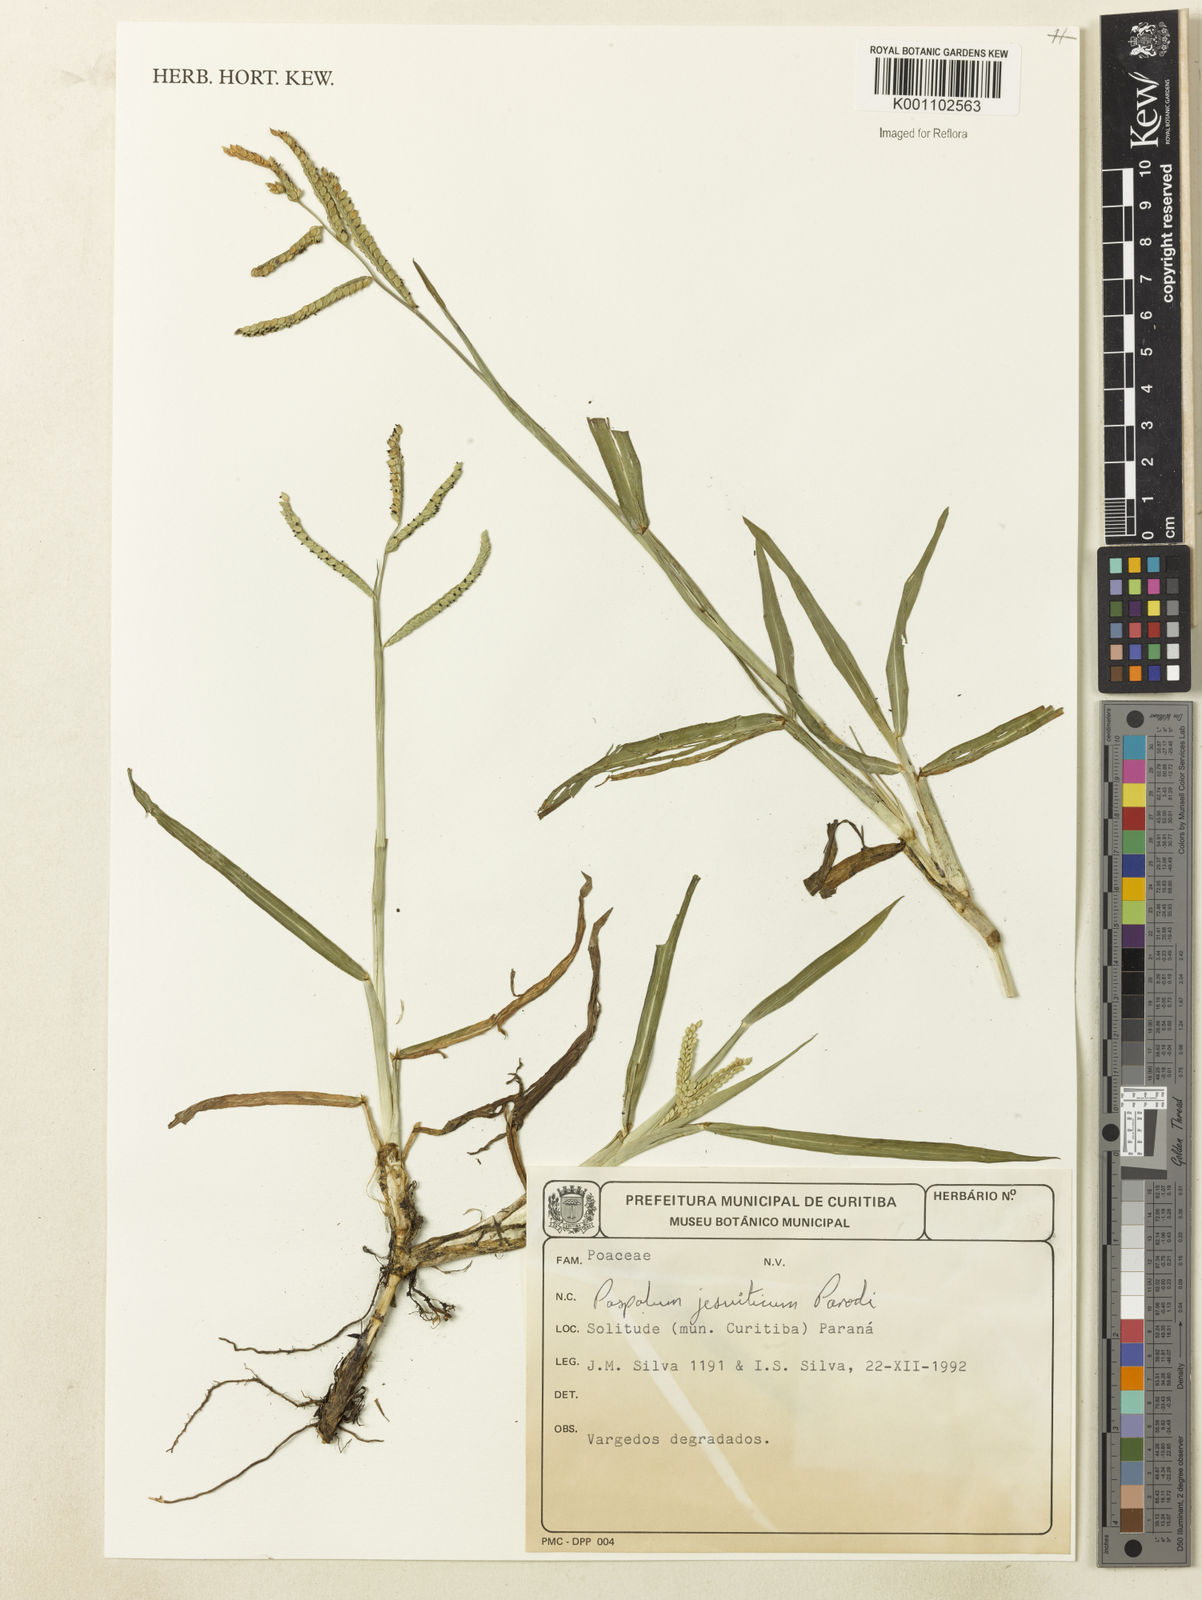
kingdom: Plantae
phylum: Tracheophyta
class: Liliopsida
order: Poales
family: Poaceae
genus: Paspalum
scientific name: Paspalum jesuiticum
